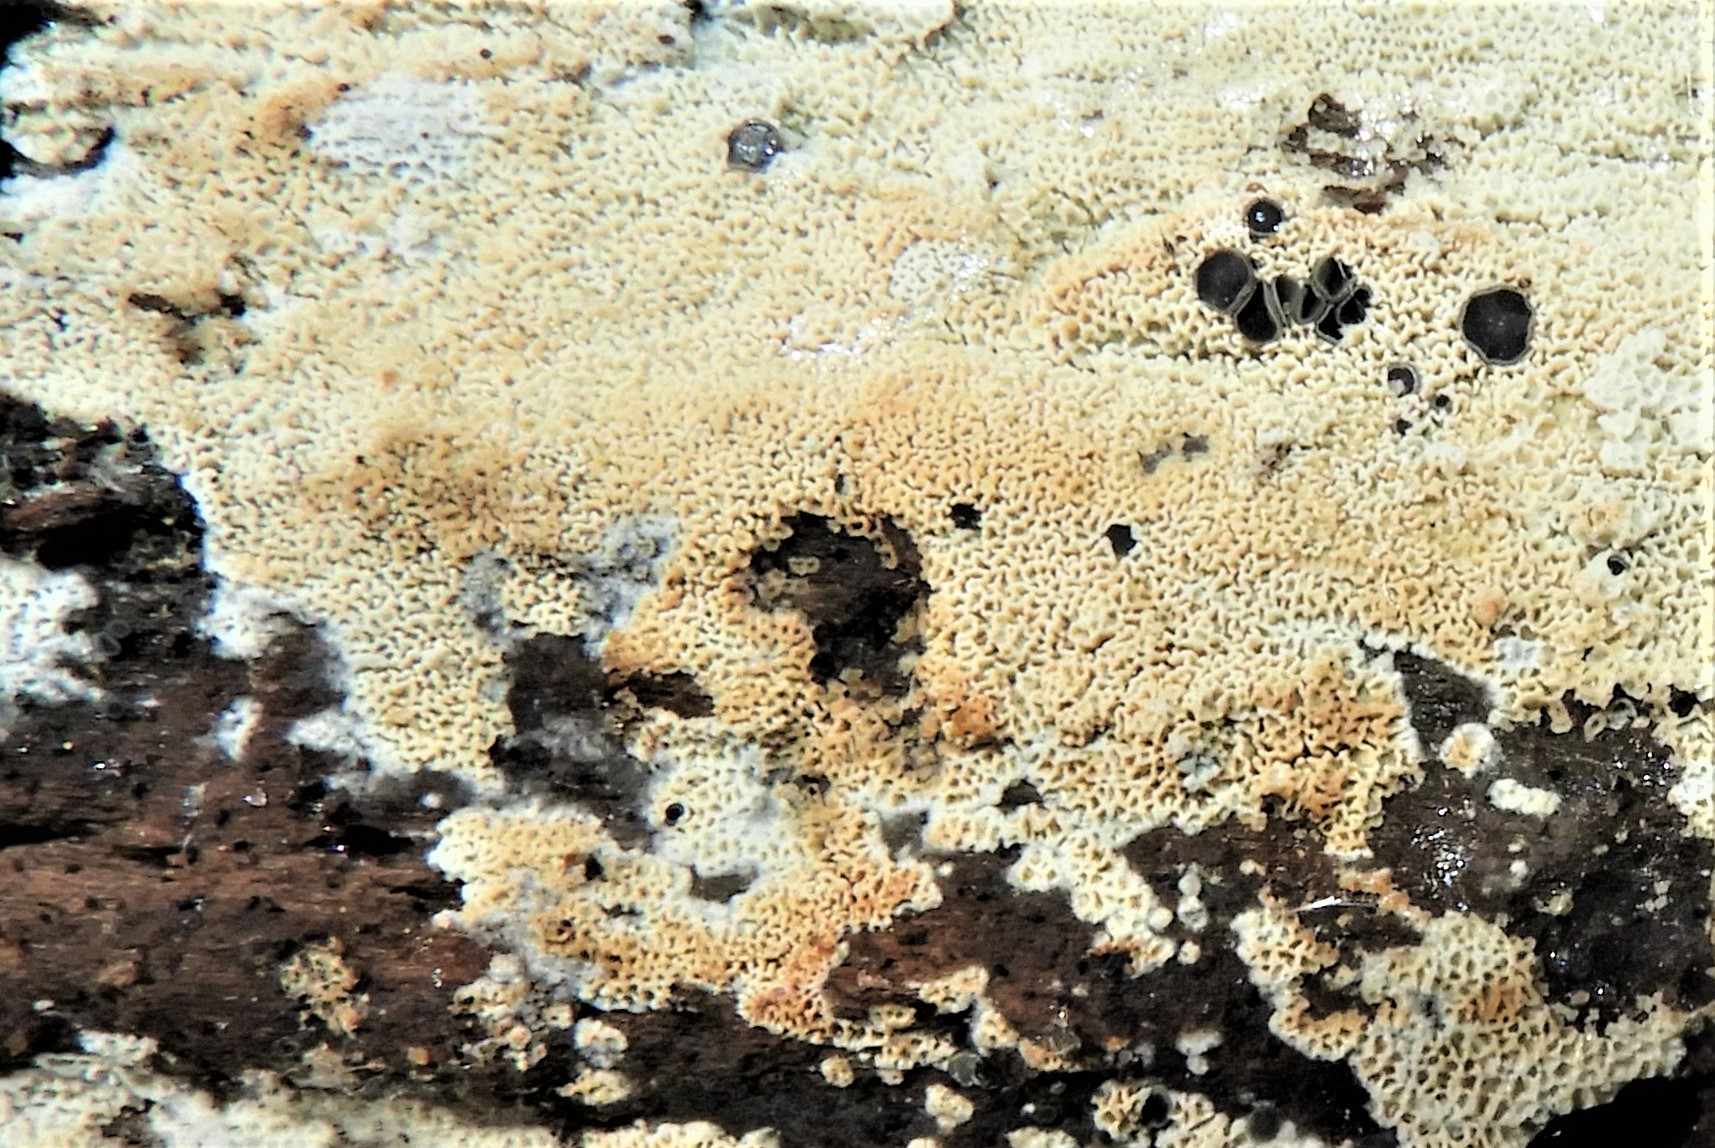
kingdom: Fungi
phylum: Basidiomycota
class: Agaricomycetes
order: Hymenochaetales
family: Schizoporaceae
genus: Xylodon
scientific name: Xylodon subtropicus
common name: labyrint-tandsvamp
